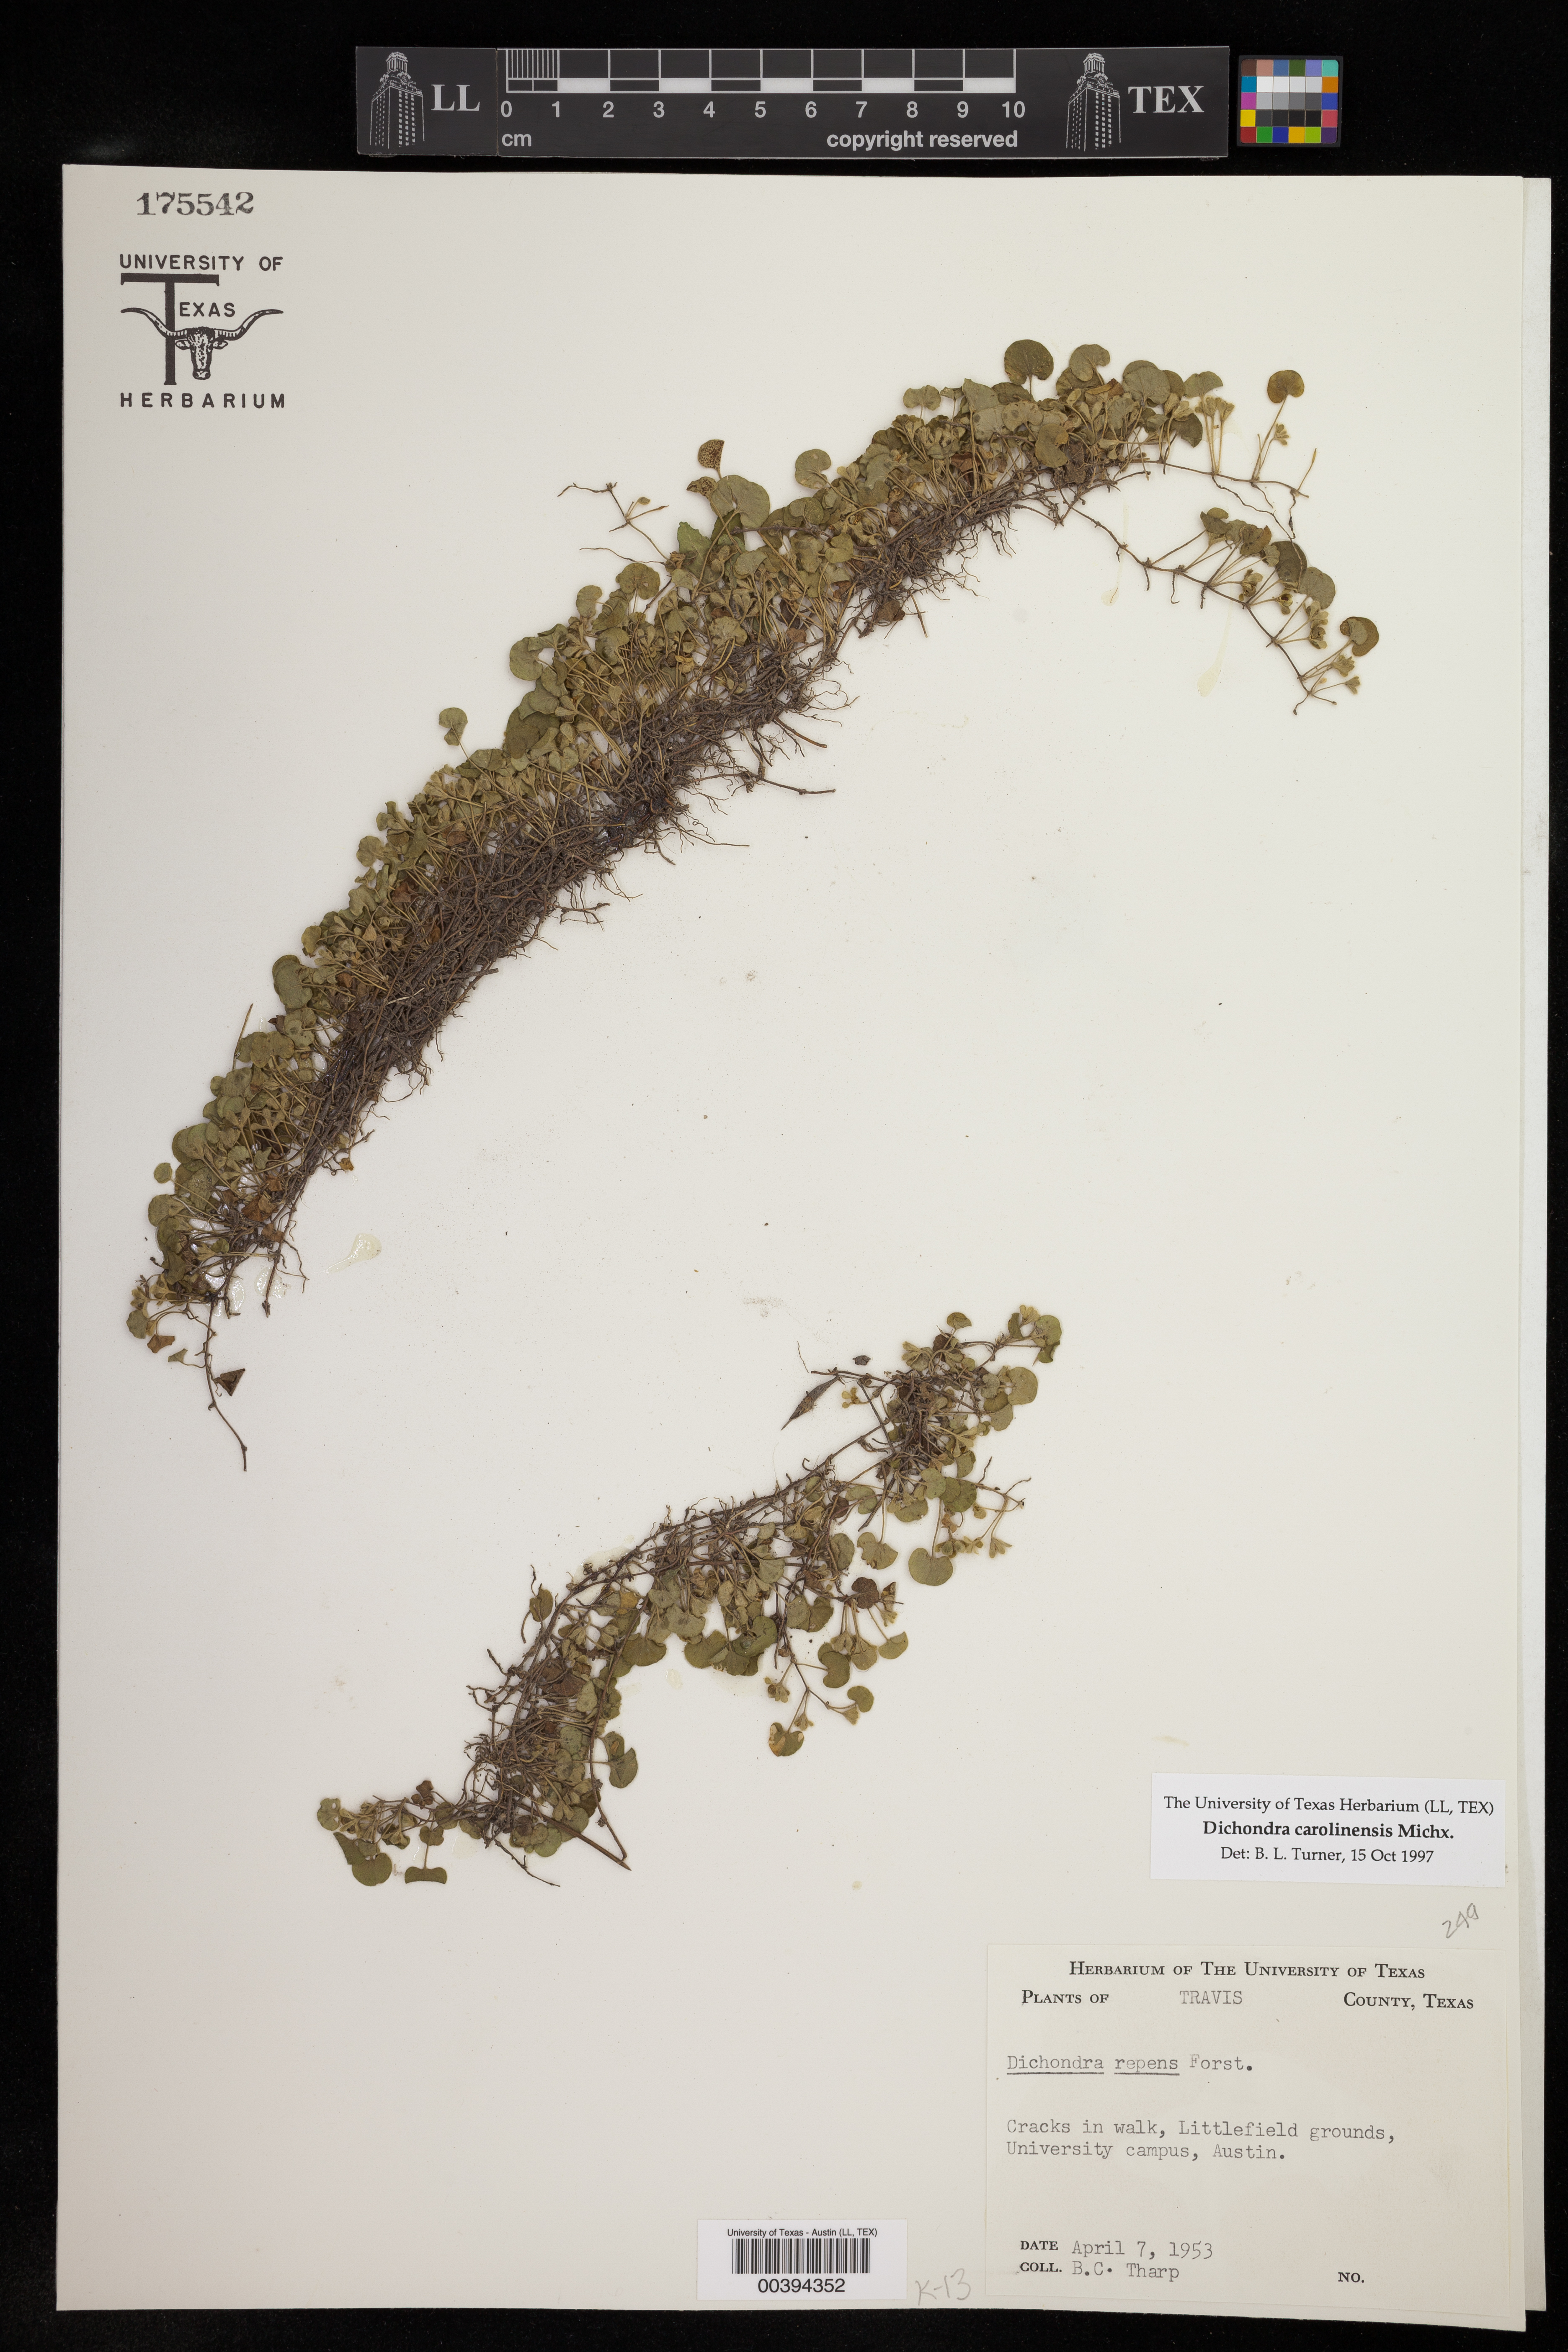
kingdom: Plantae
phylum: Tracheophyta
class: Magnoliopsida
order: Solanales
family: Convolvulaceae
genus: Dichondra
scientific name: Dichondra carolinensis
